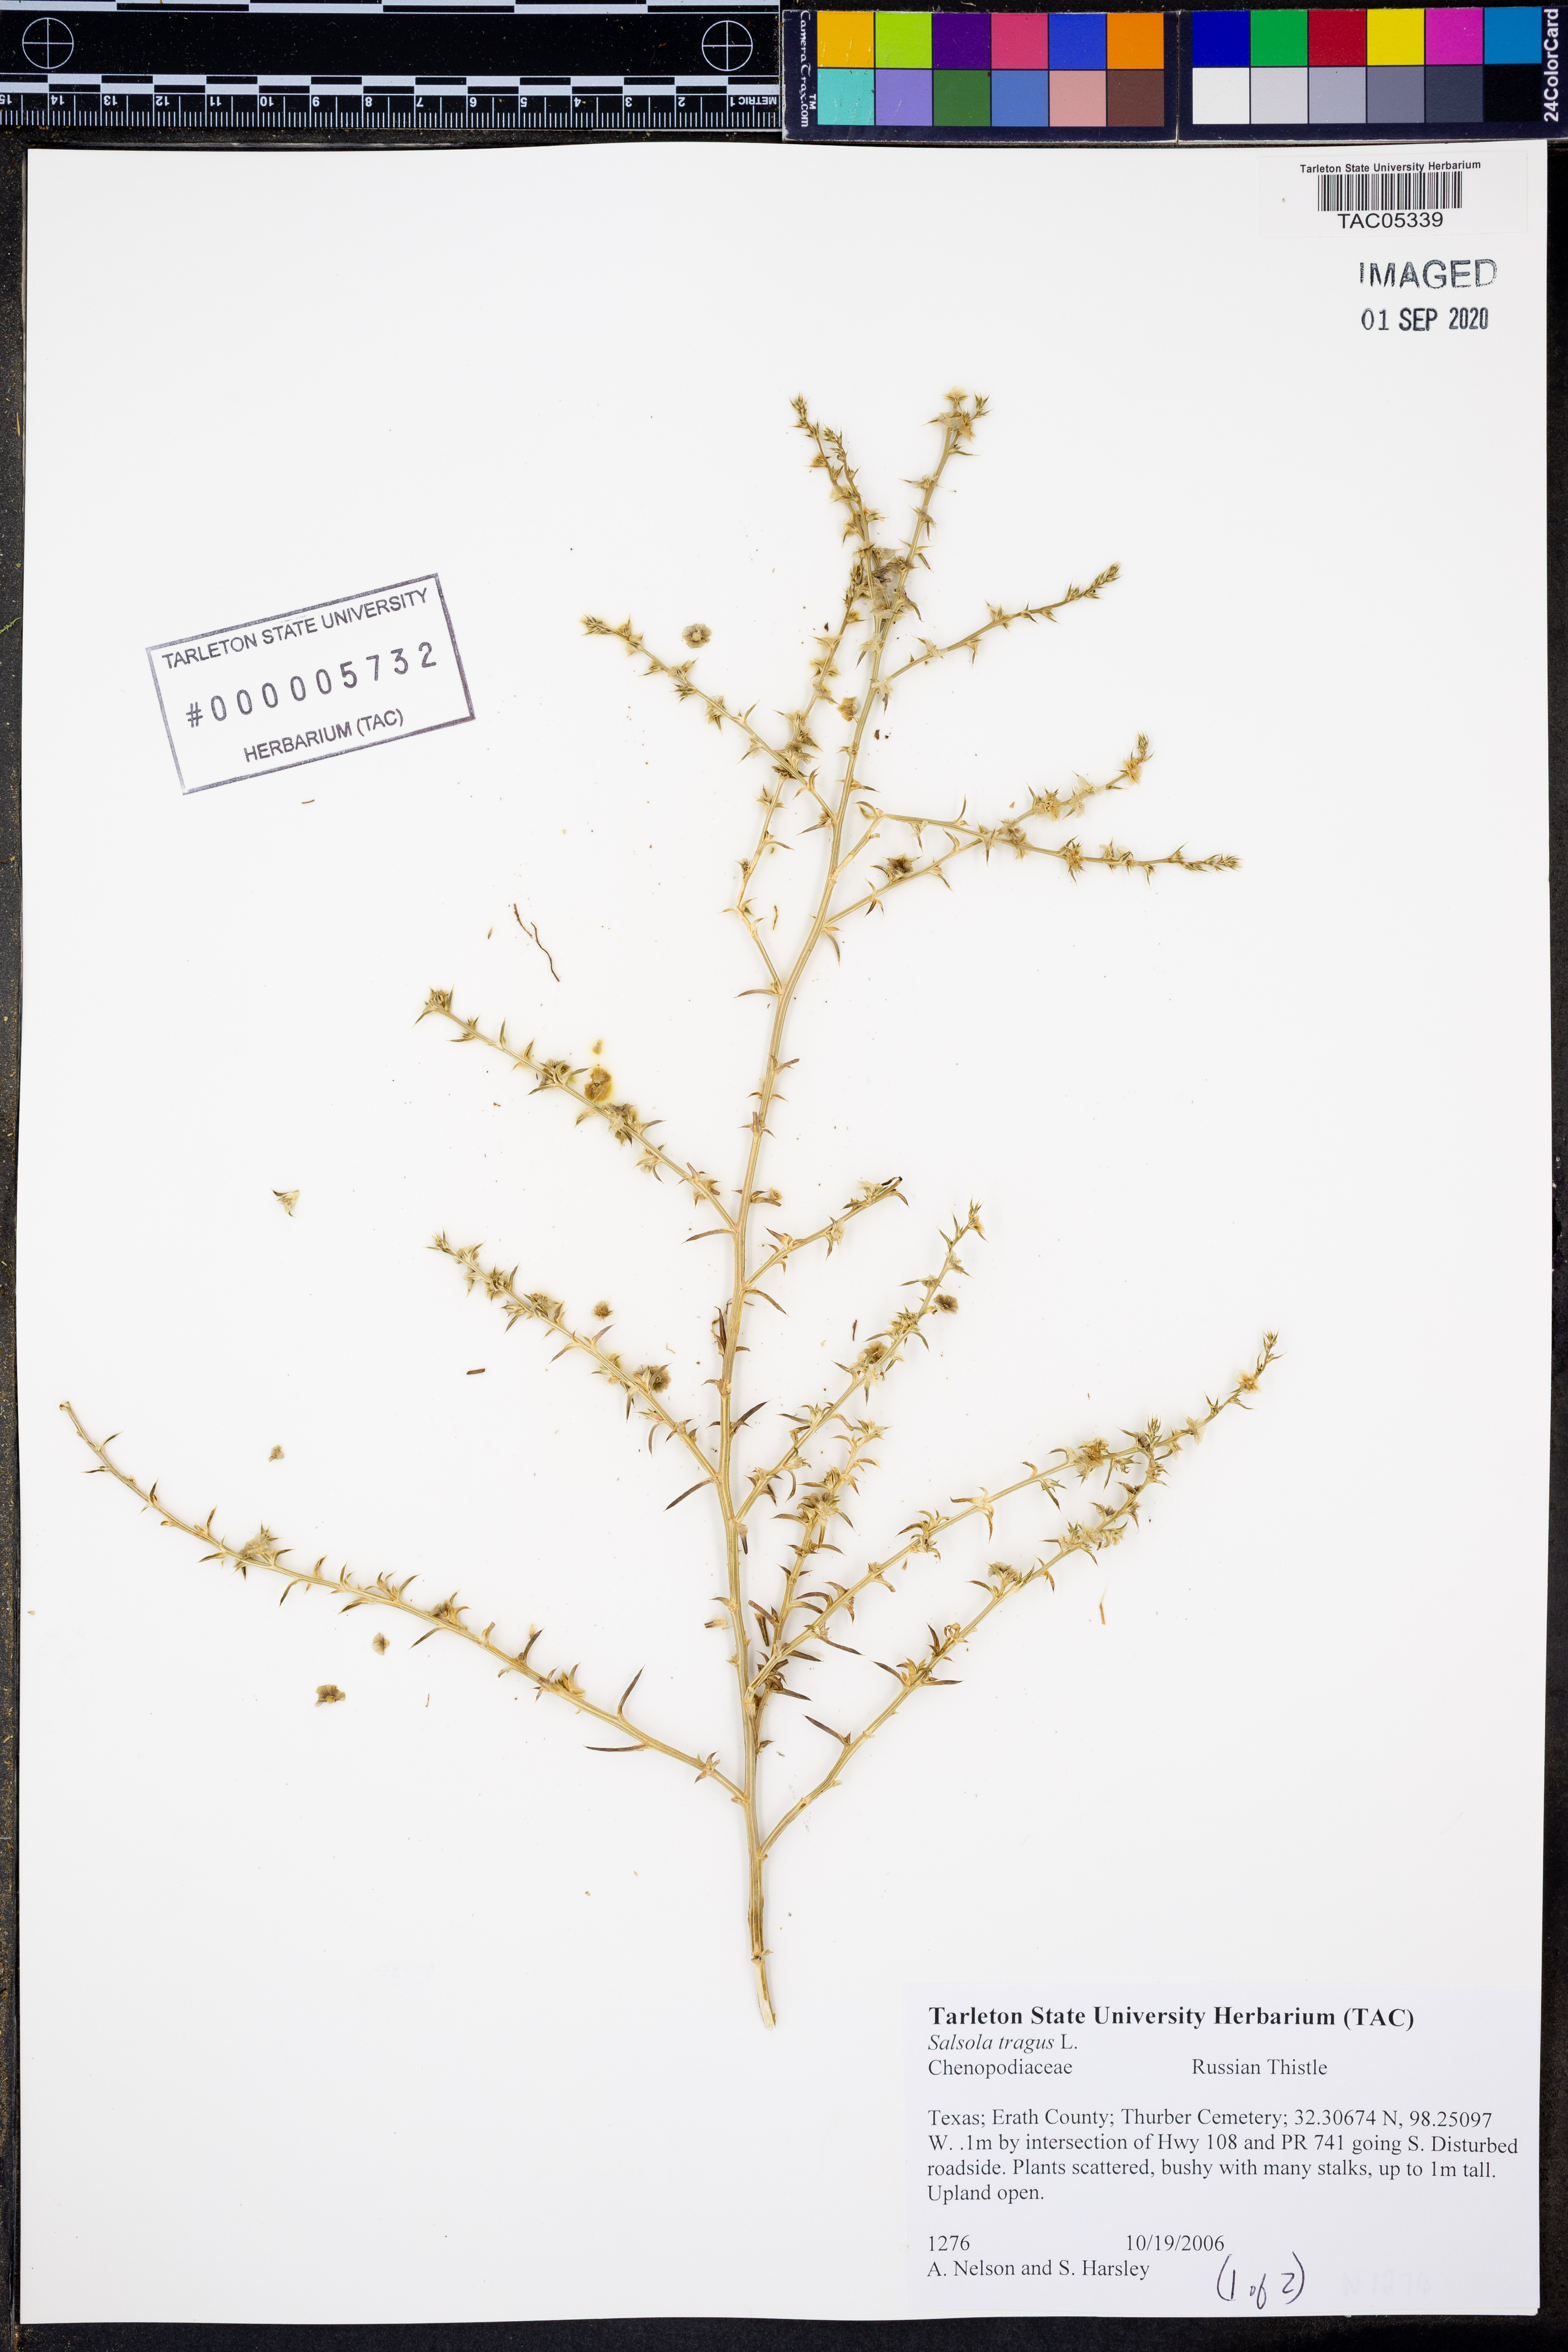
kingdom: Plantae
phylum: Tracheophyta
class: Magnoliopsida
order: Caryophyllales
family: Amaranthaceae
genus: Salsola
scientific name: Salsola tragus
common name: Prickly russian thistle
